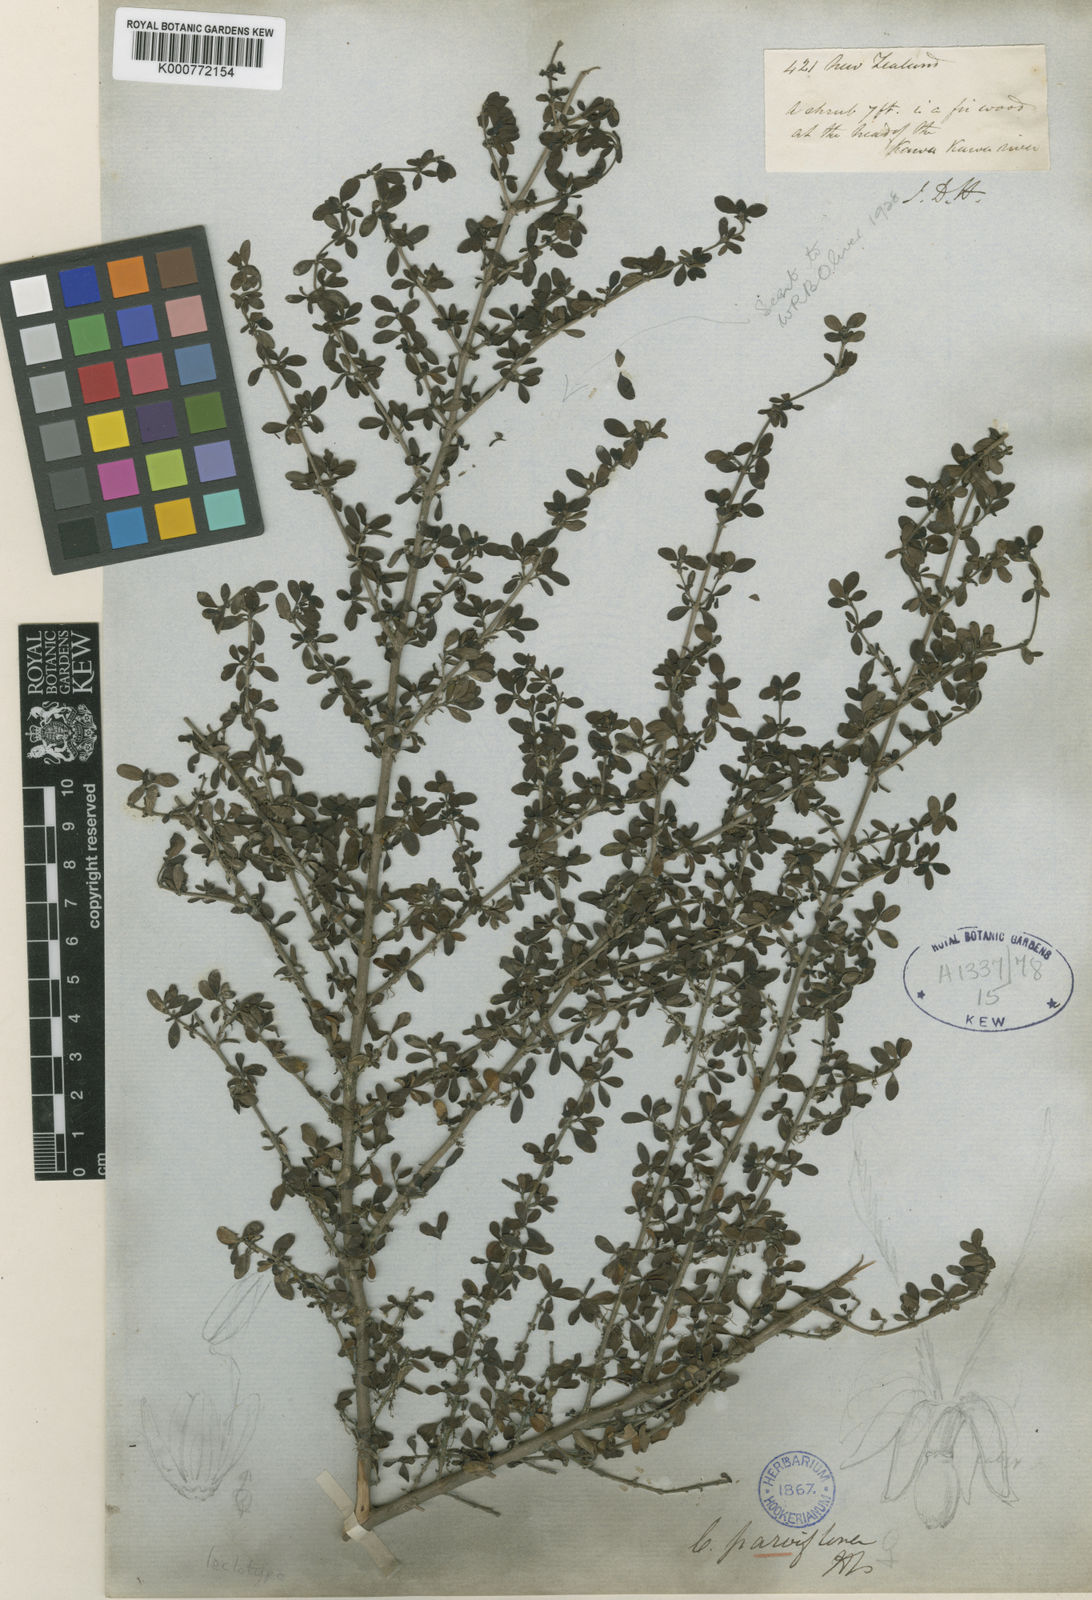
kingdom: Plantae
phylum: Tracheophyta
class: Magnoliopsida
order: Gentianales
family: Rubiaceae
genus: Coprosma
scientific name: Coprosma parviflora
